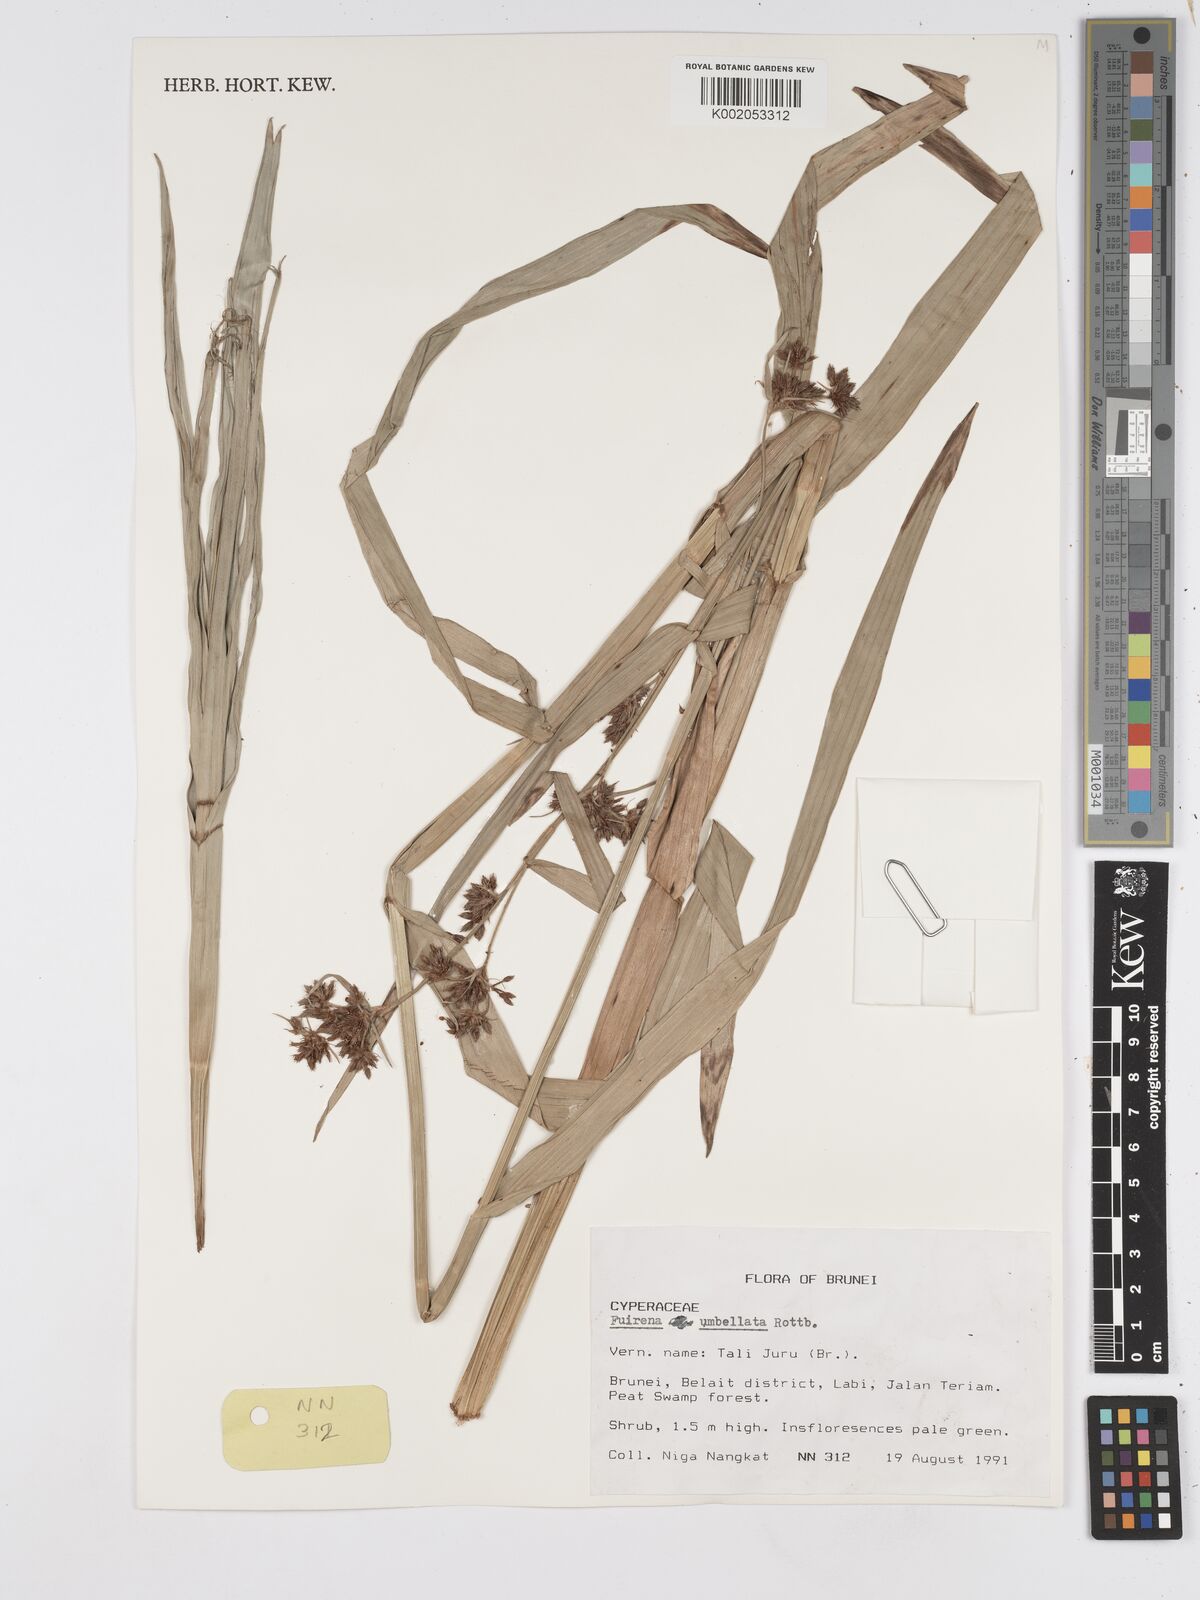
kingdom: Plantae
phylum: Tracheophyta
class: Liliopsida
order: Poales
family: Cyperaceae
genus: Fuirena
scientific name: Fuirena umbellata
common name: Yefen
